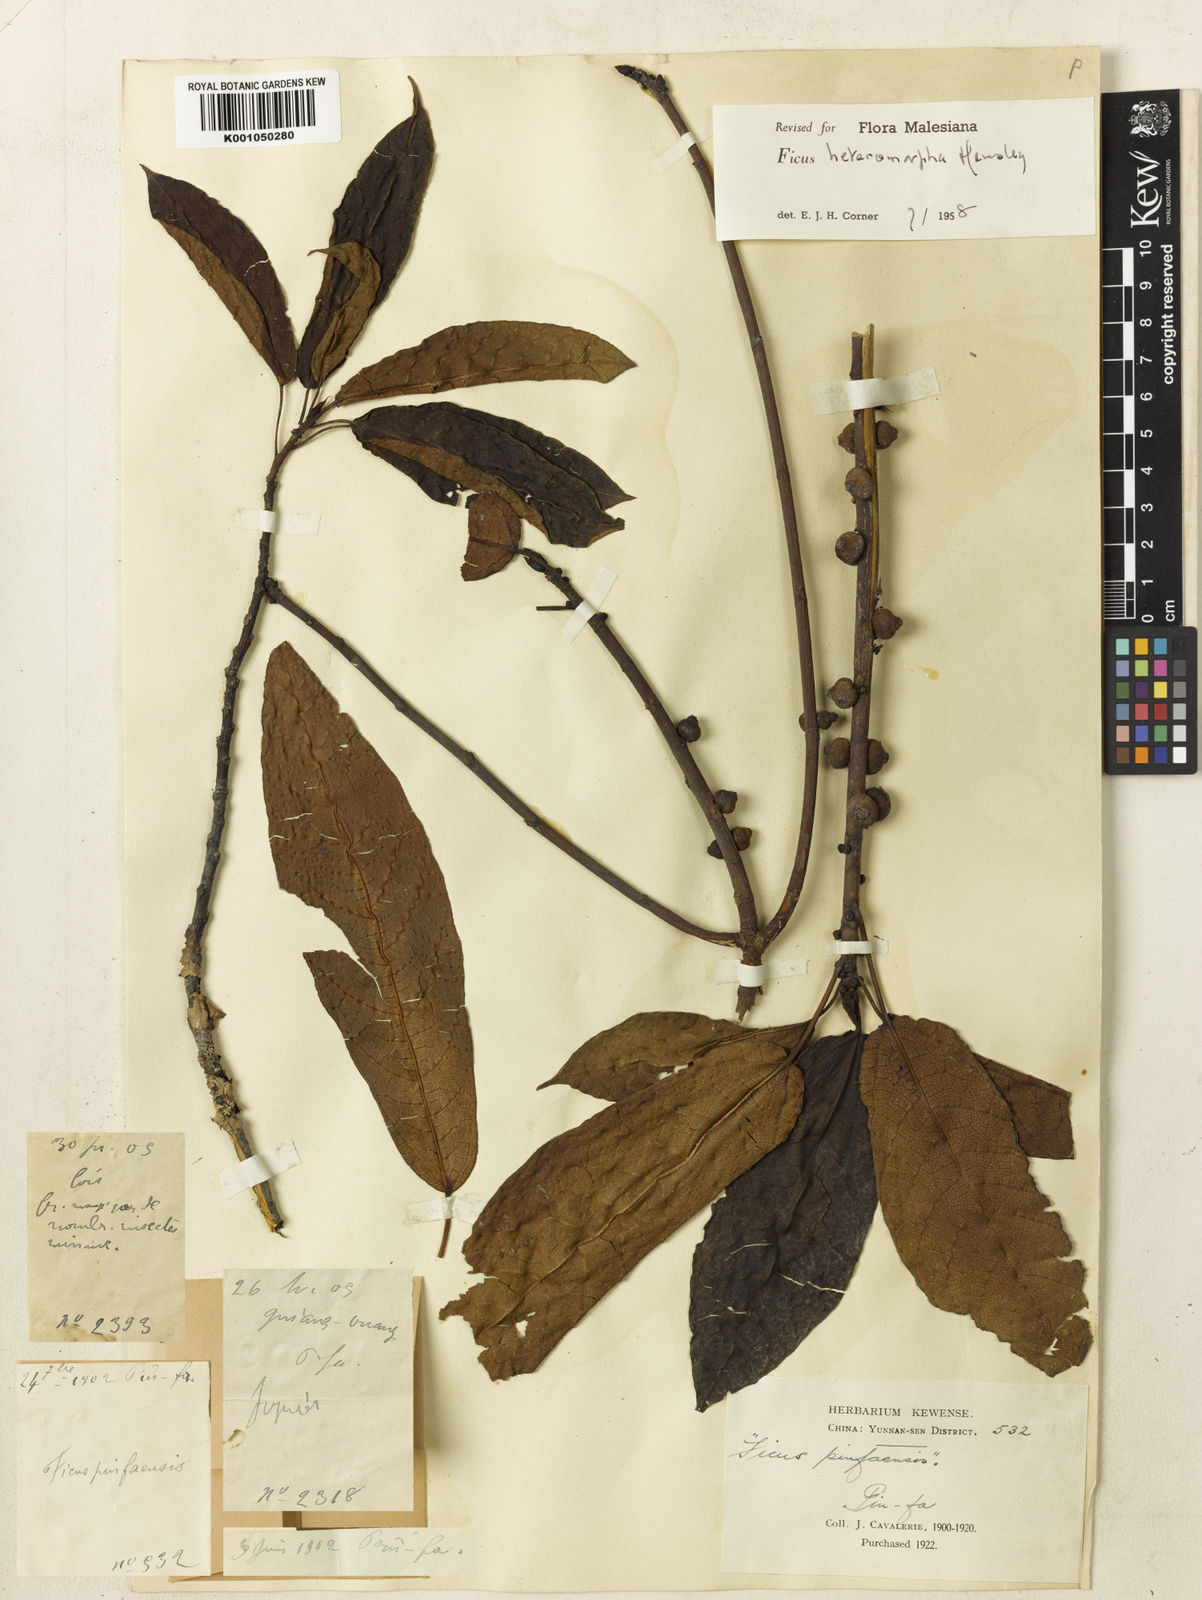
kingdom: Plantae
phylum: Tracheophyta
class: Magnoliopsida
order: Rosales
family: Moraceae
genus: Ficus
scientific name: Ficus heteromorpha
